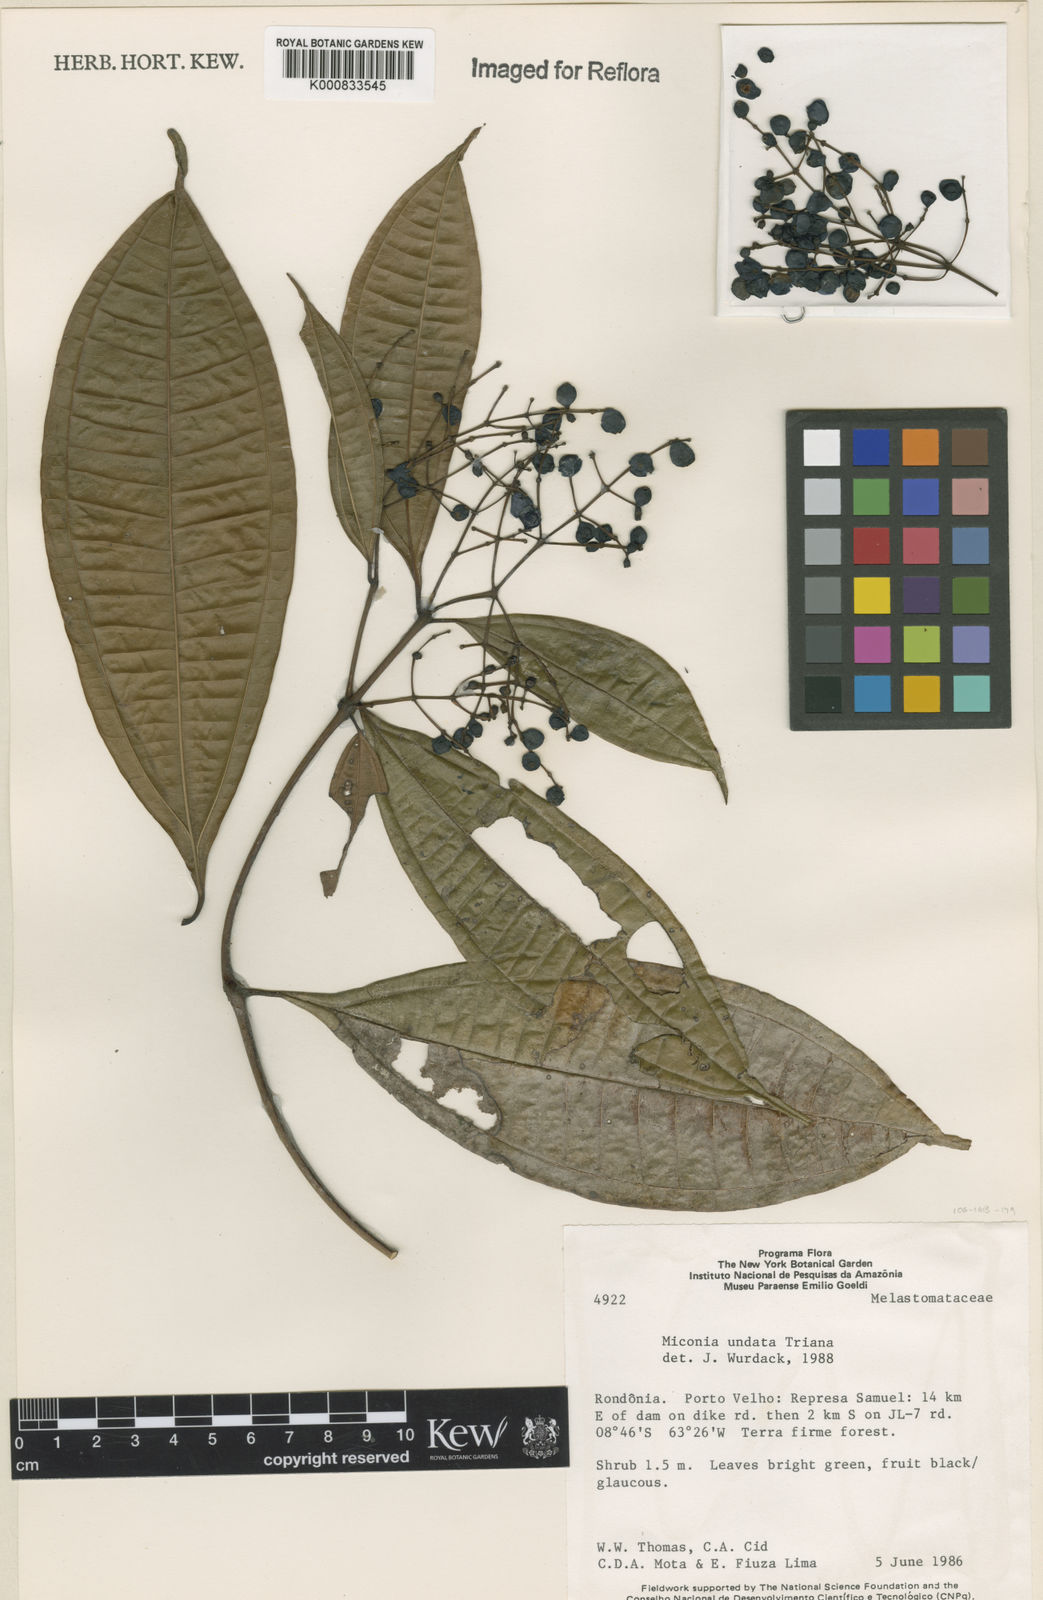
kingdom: Plantae
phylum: Tracheophyta
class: Magnoliopsida
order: Myrtales
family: Melastomataceae
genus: Miconia
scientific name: Miconia undata
